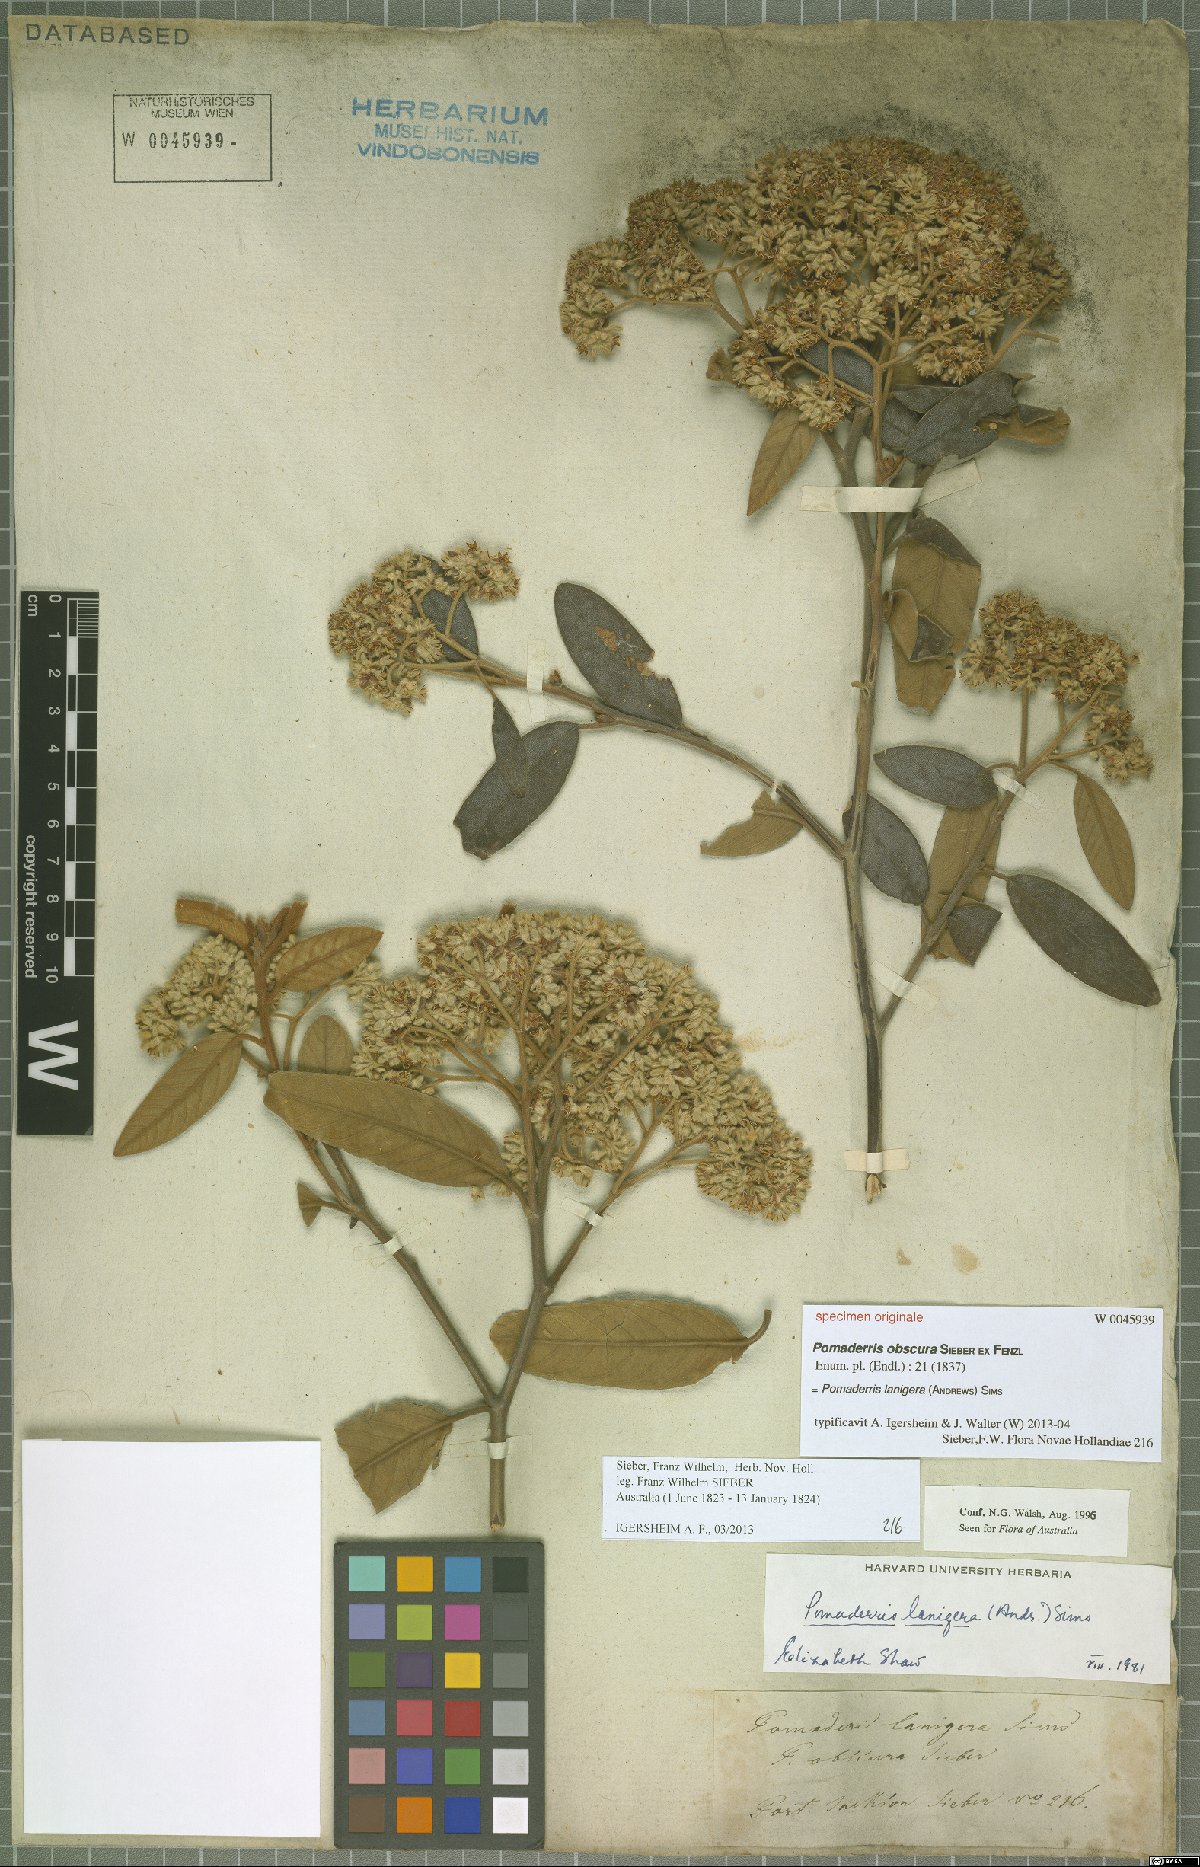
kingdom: Plantae
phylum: Tracheophyta
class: Magnoliopsida
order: Rosales
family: Rhamnaceae
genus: Pomaderris
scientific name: Pomaderris lanigera
